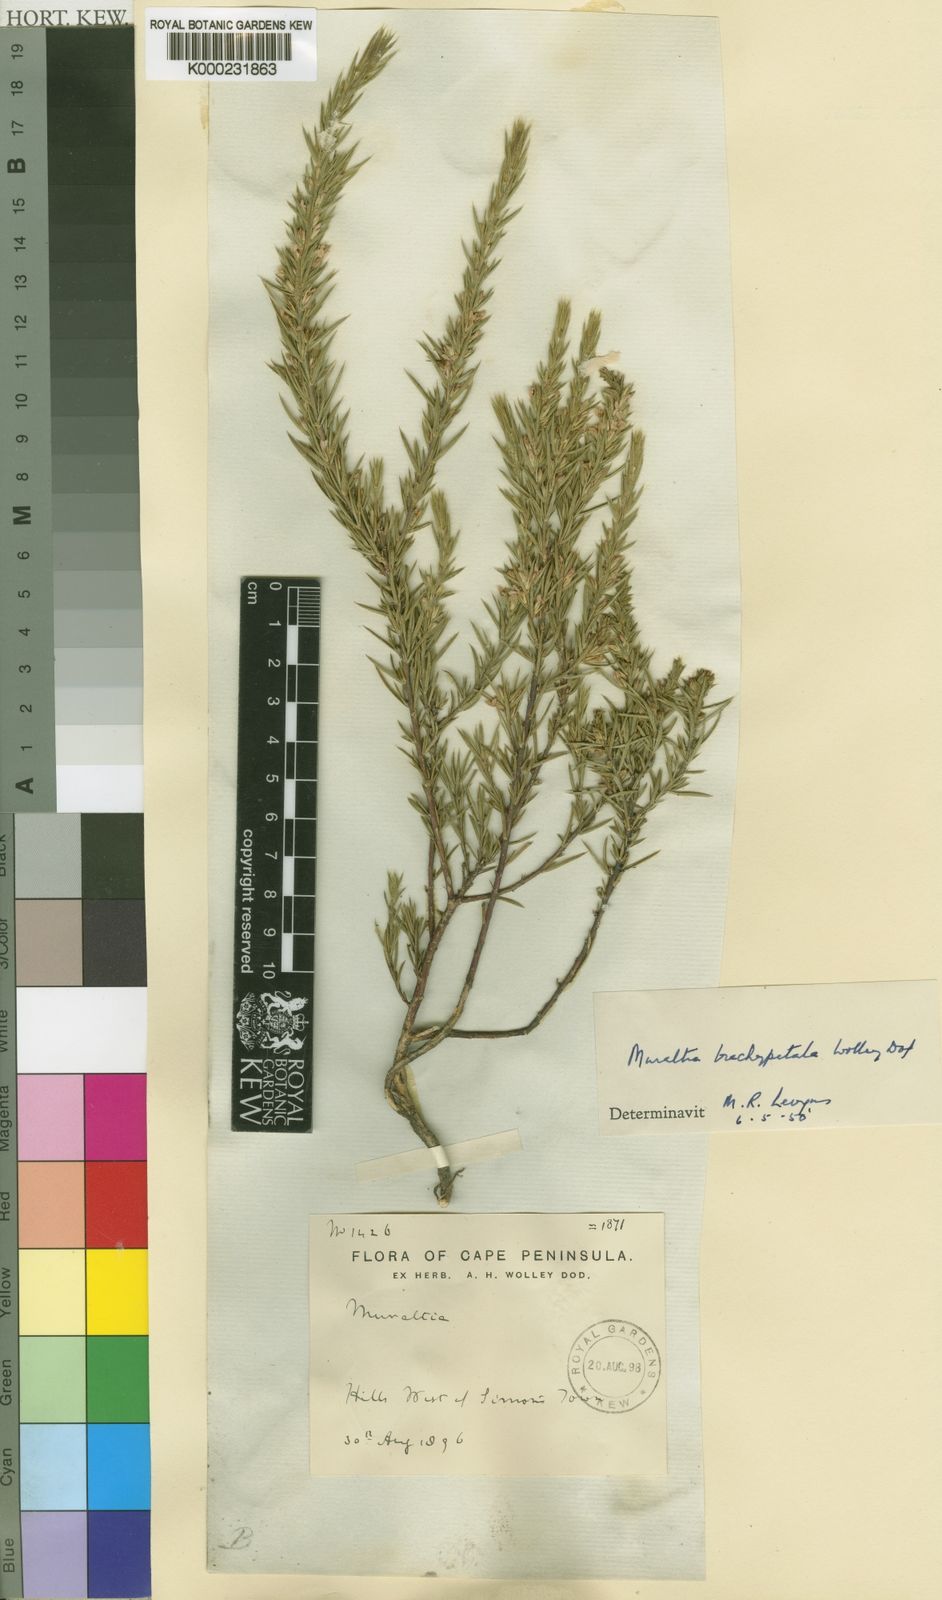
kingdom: Plantae
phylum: Tracheophyta
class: Magnoliopsida
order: Fabales
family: Polygalaceae
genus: Muraltia
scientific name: Muraltia brachypetala
